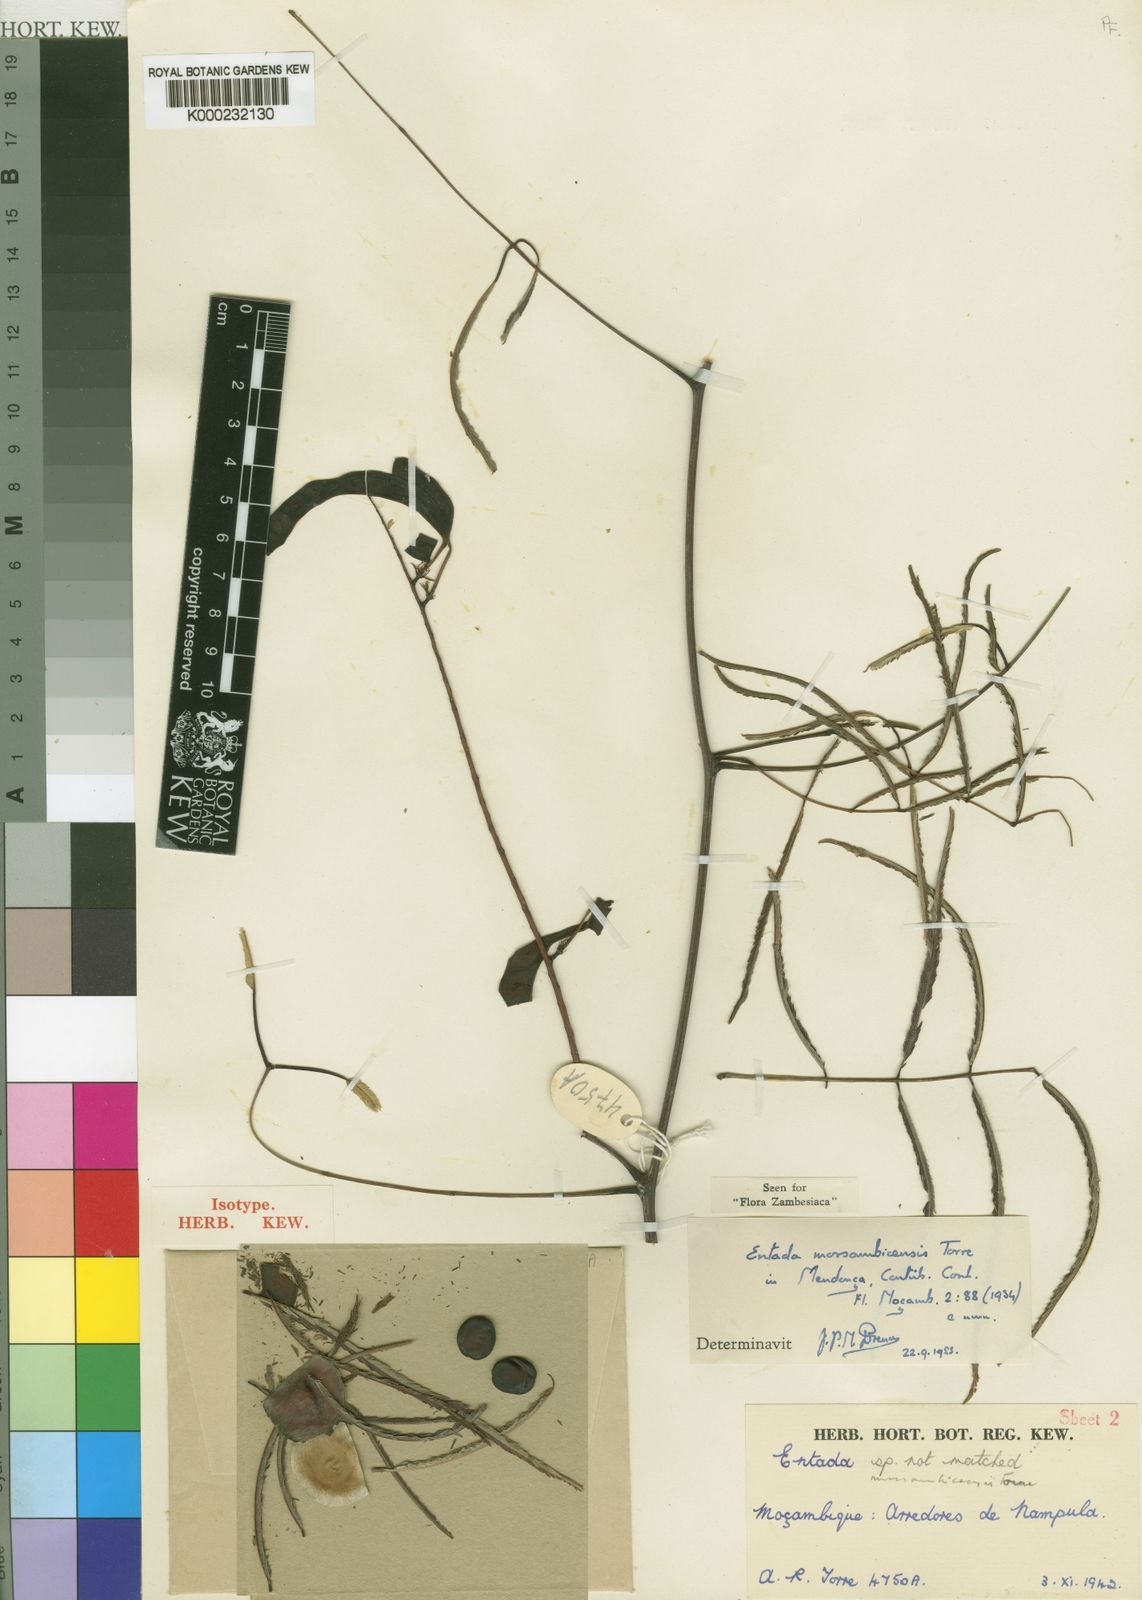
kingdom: Plantae
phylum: Tracheophyta
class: Magnoliopsida
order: Fabales
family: Fabaceae
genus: Entada
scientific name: Entada
